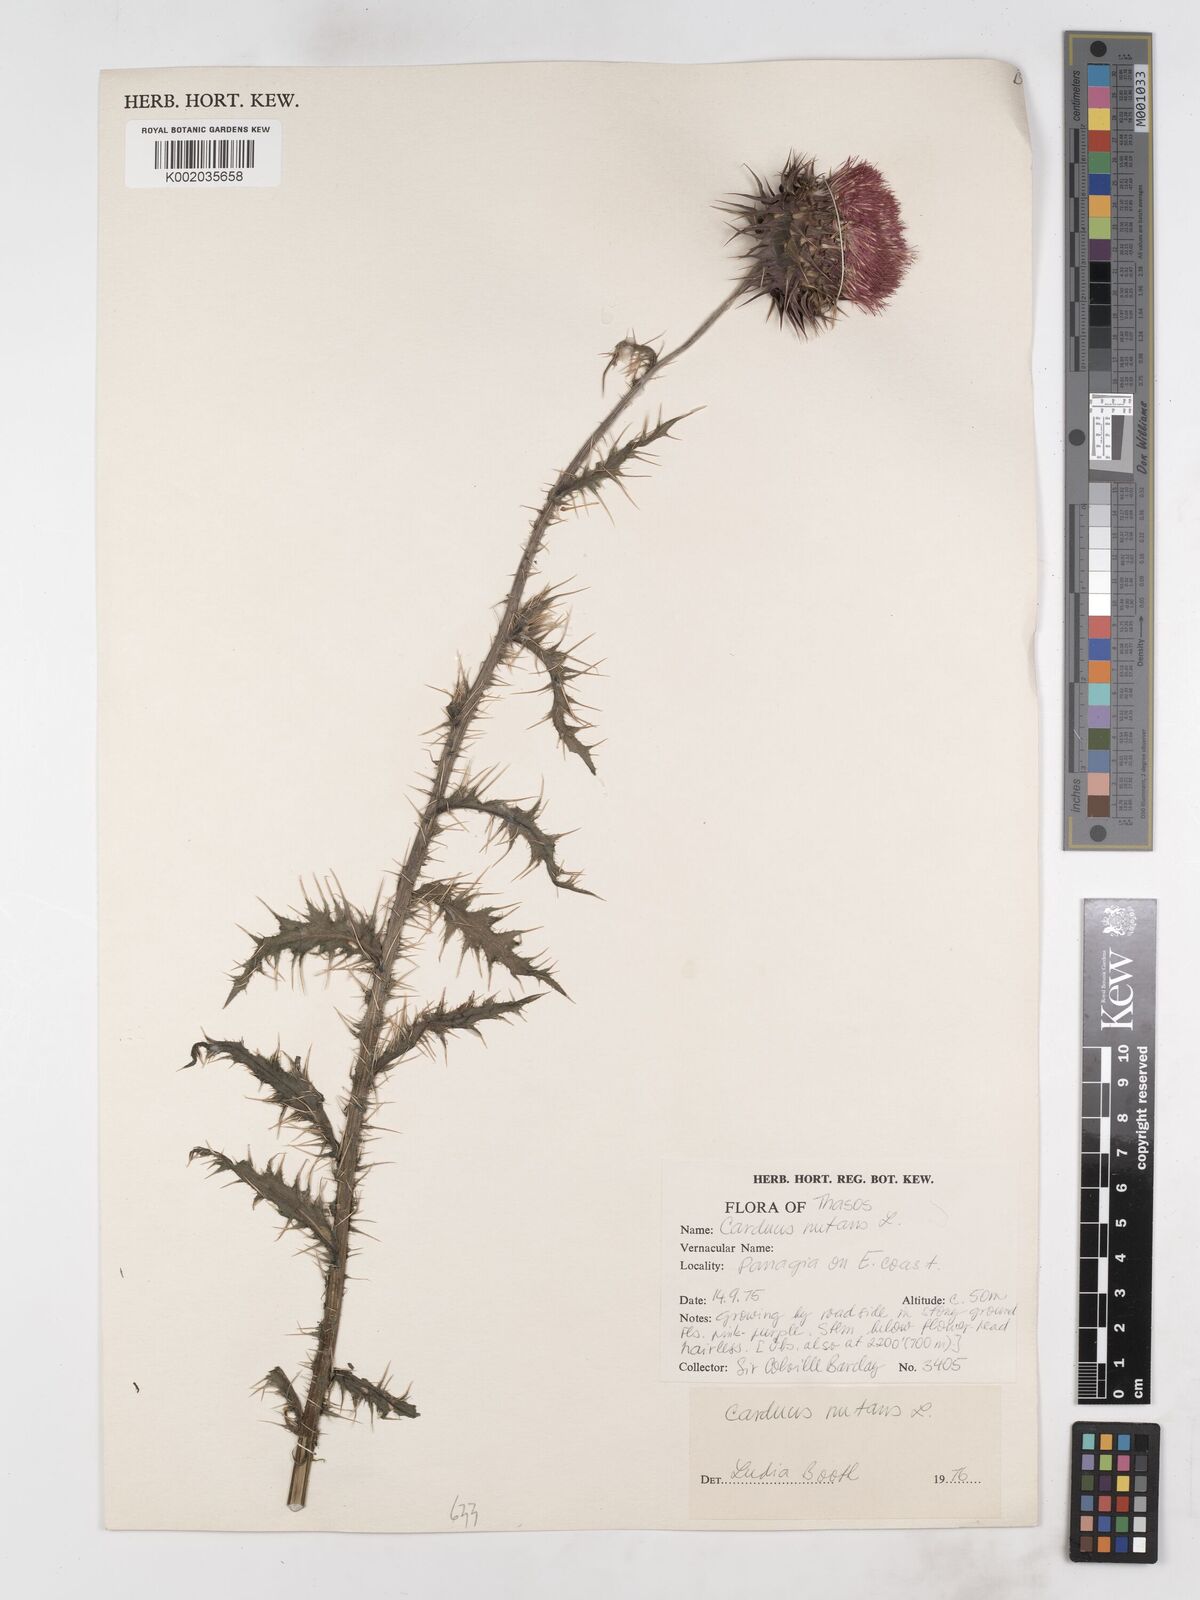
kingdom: Plantae
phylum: Tracheophyta
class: Magnoliopsida
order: Asterales
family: Asteraceae
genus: Carduus
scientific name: Carduus nutans
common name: Musk thistle
